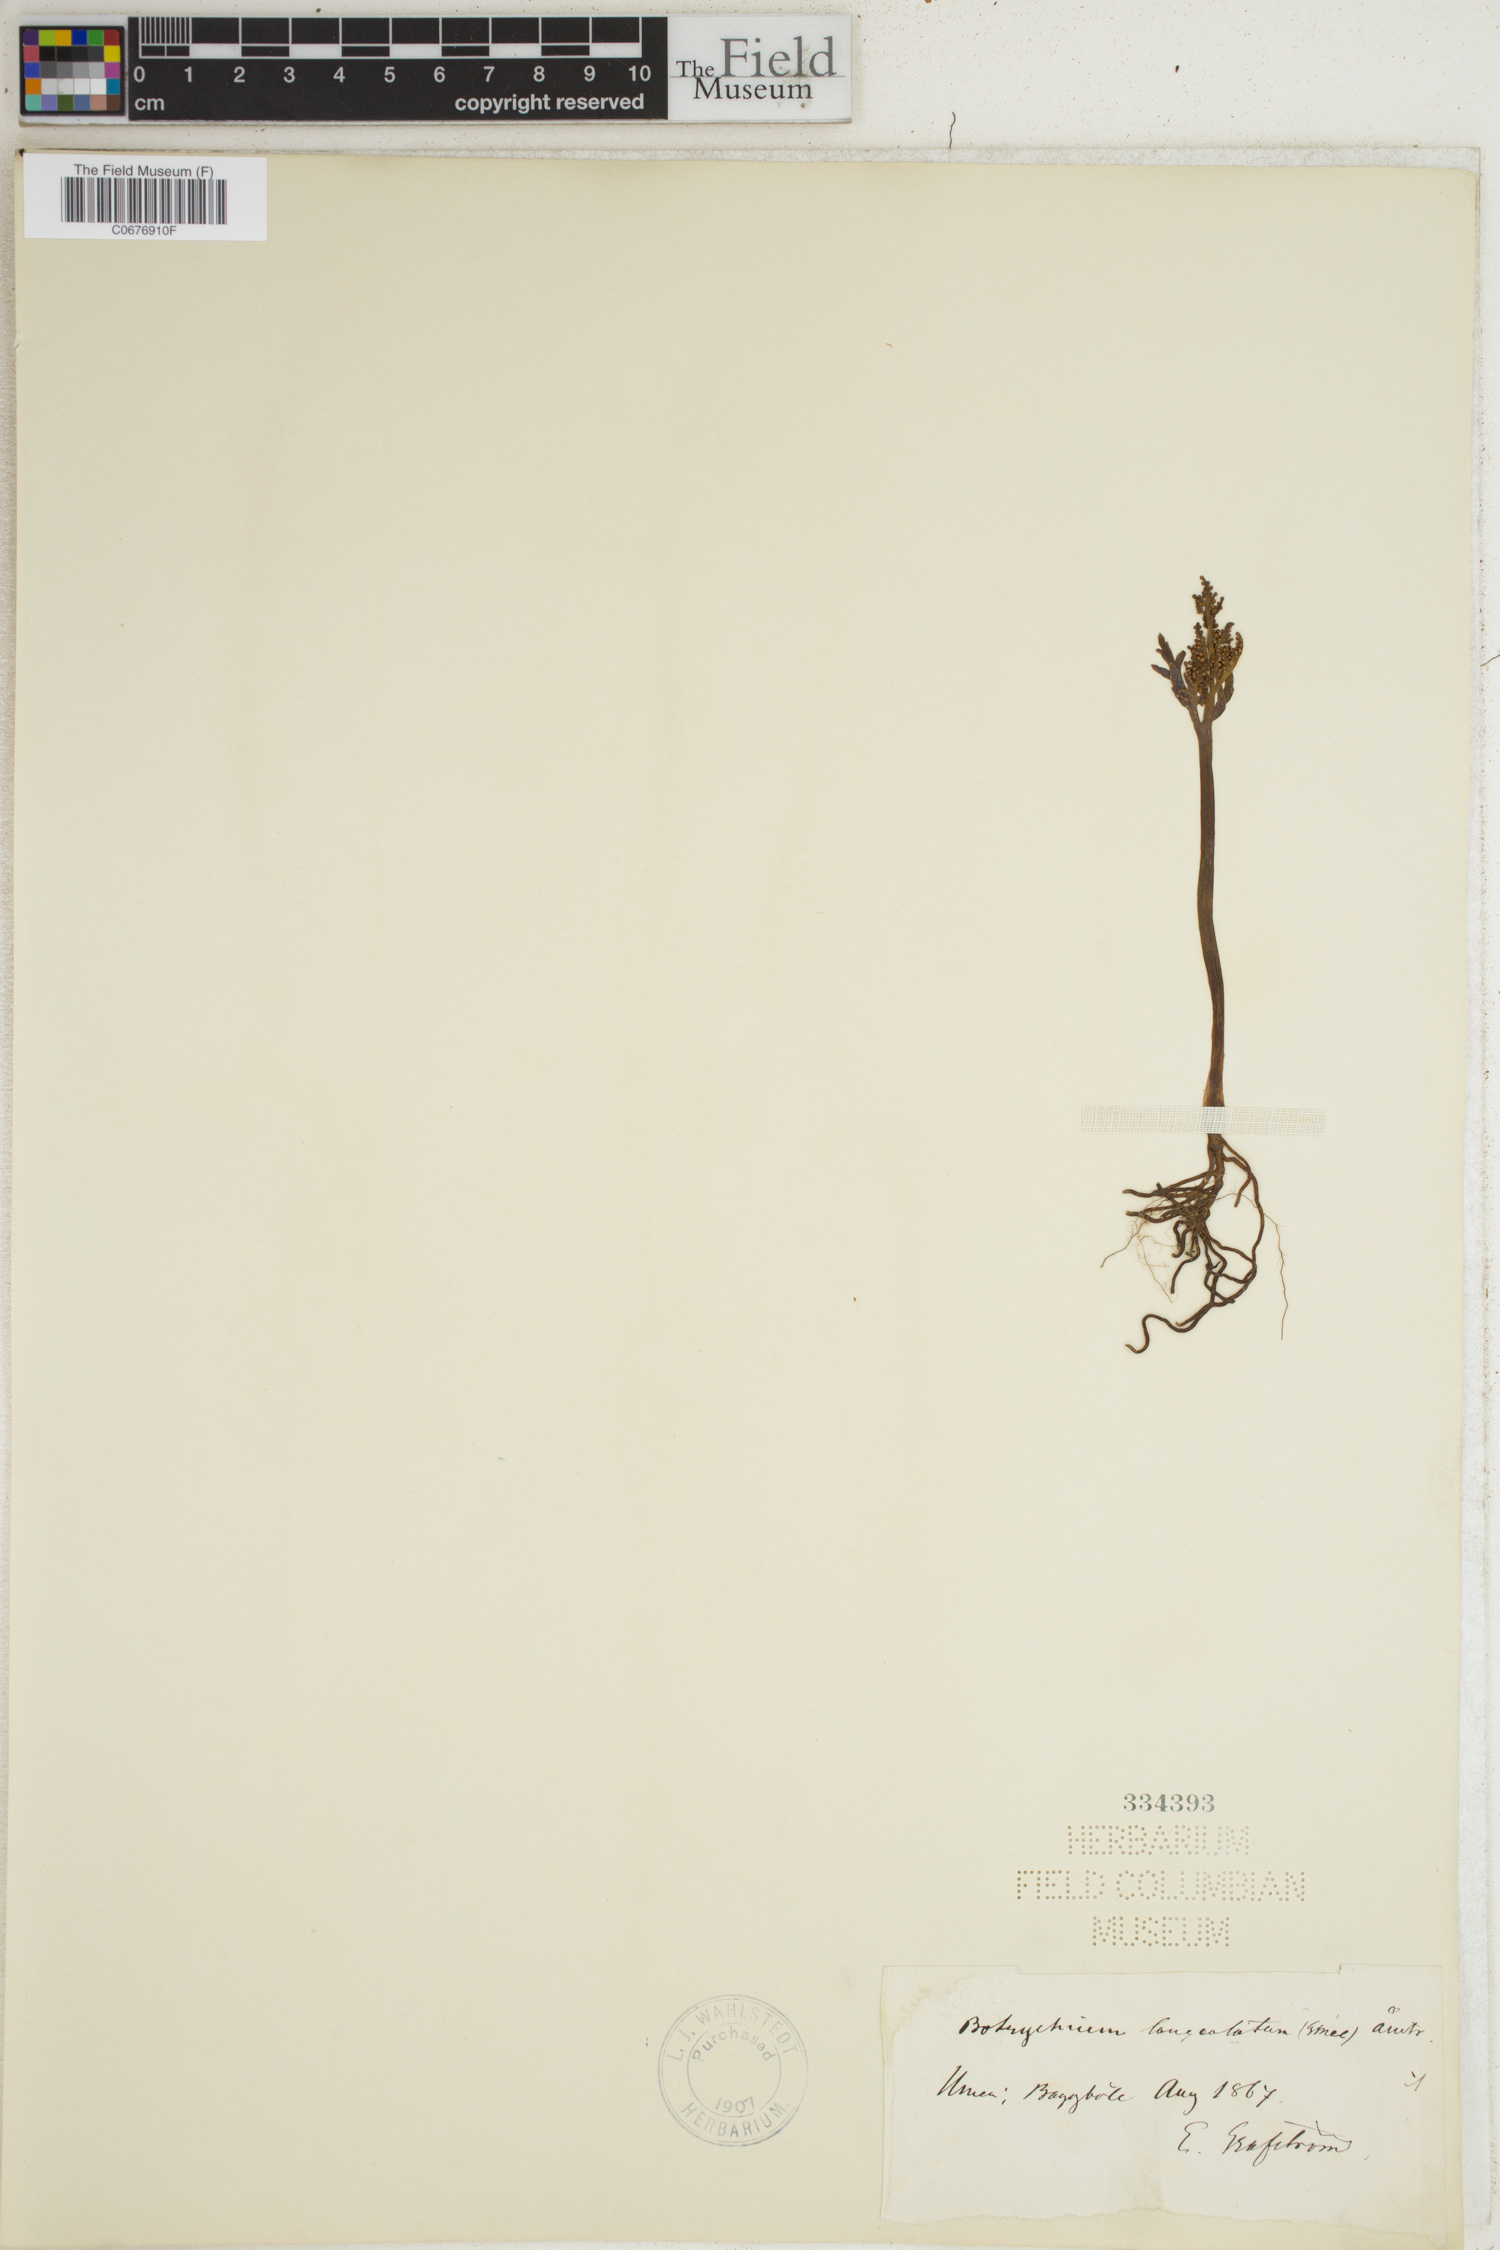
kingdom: Plantae
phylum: Tracheophyta
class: Polypodiopsida
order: Ophioglossales
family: Ophioglossaceae
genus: Botrychium
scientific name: Botrychium lanceolatum
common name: Lance-leaved moonwort
